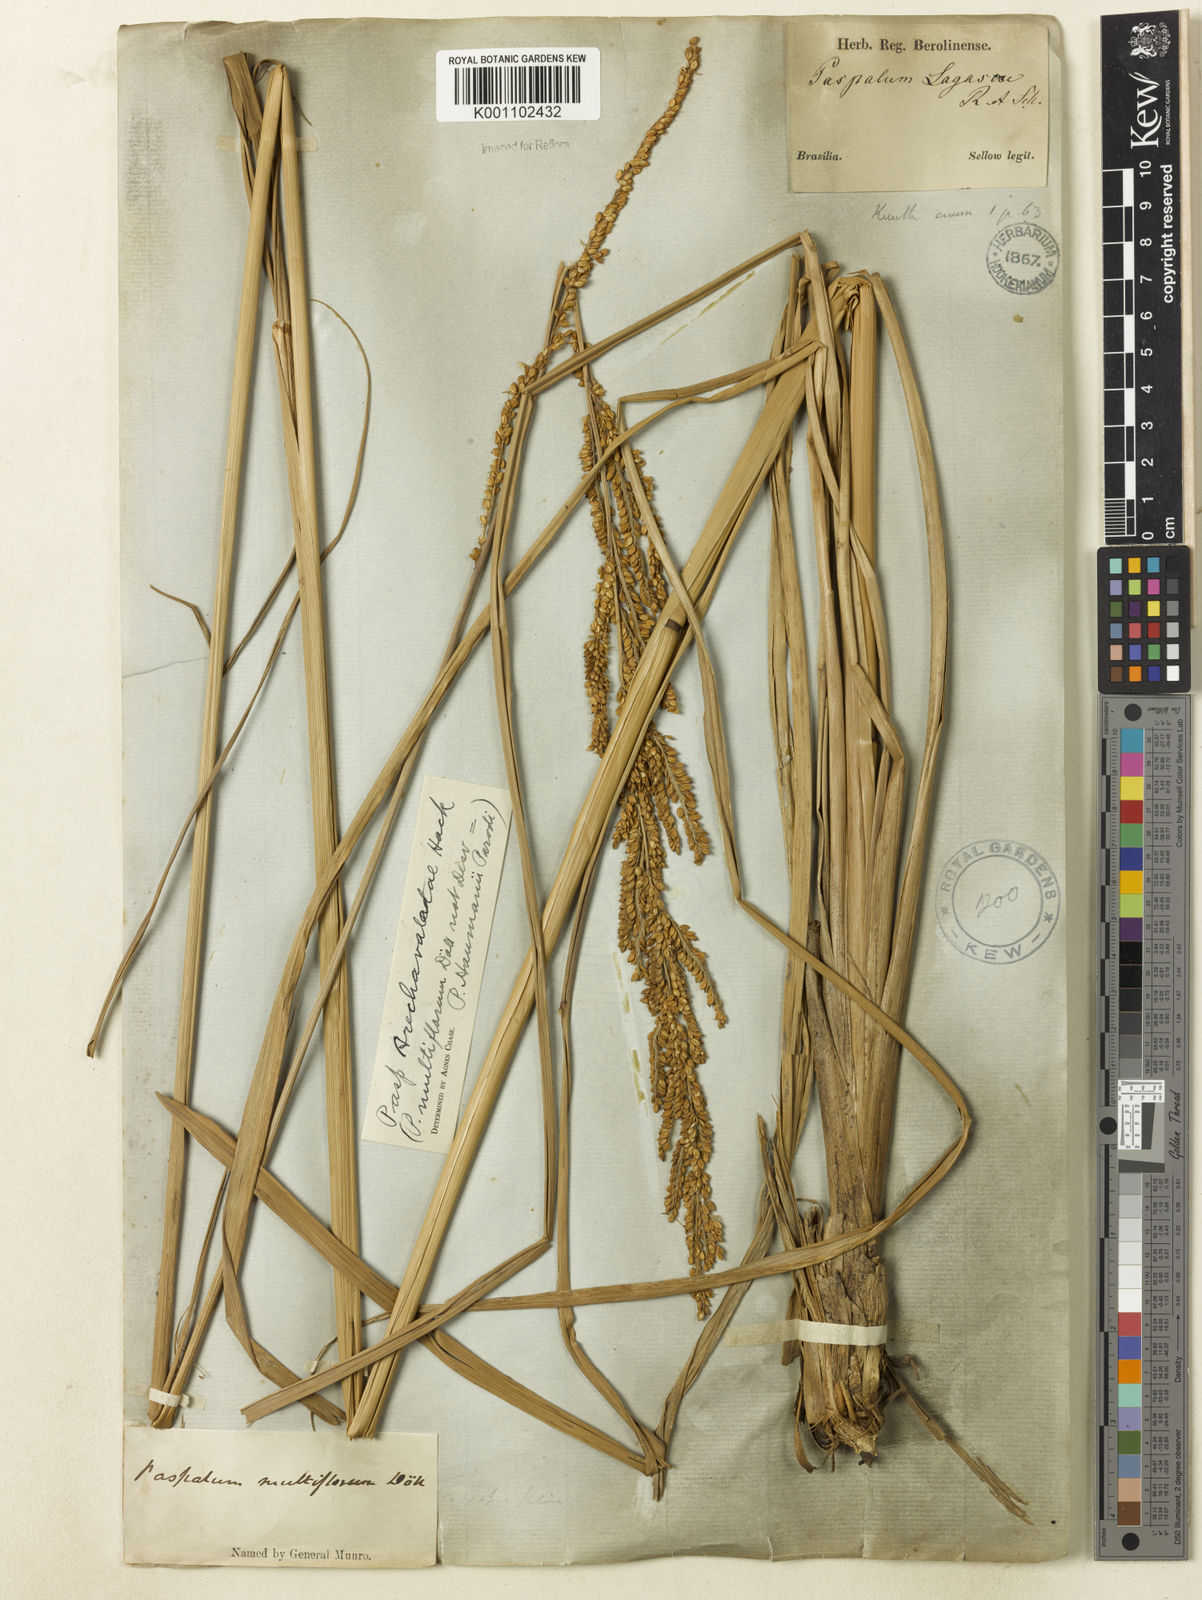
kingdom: Plantae
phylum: Tracheophyta
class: Liliopsida
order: Poales
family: Poaceae
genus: Paspalum
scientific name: Paspalum exaltatum
